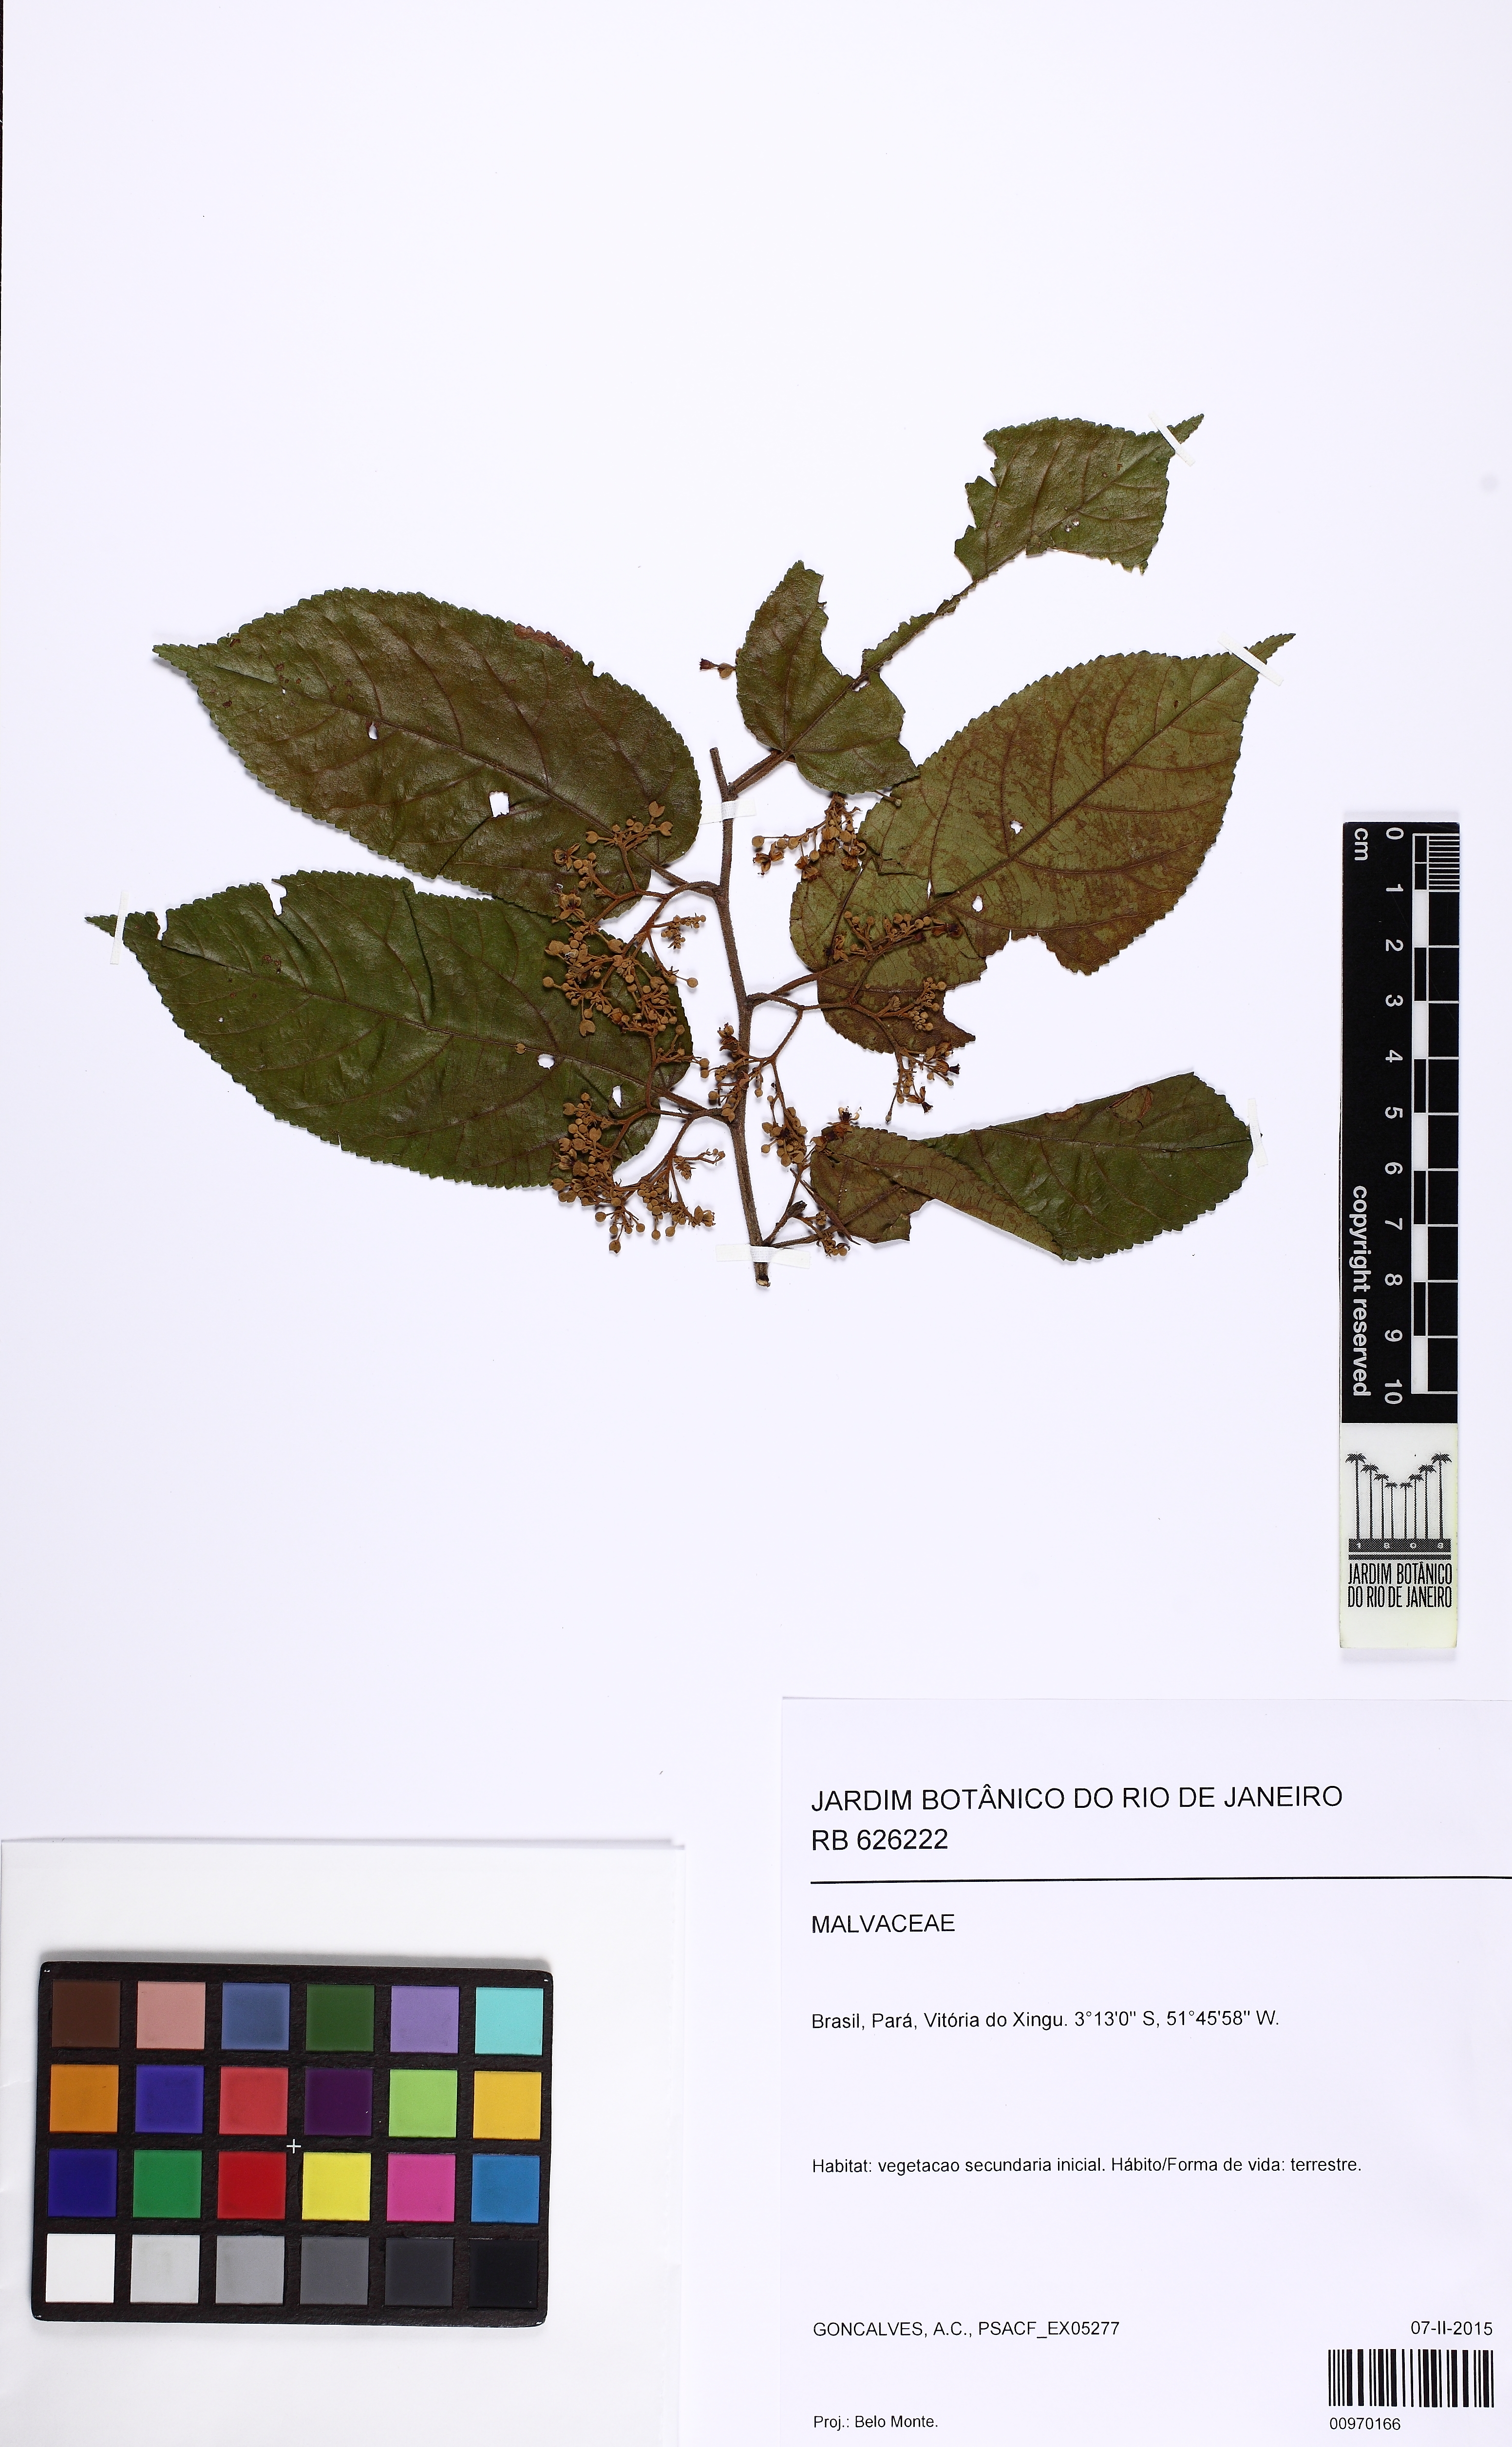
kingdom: Plantae
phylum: Tracheophyta
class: Magnoliopsida
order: Malvales
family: Malvaceae
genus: Guazuma
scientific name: Guazuma ulmifolia
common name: Bastard-cedar
